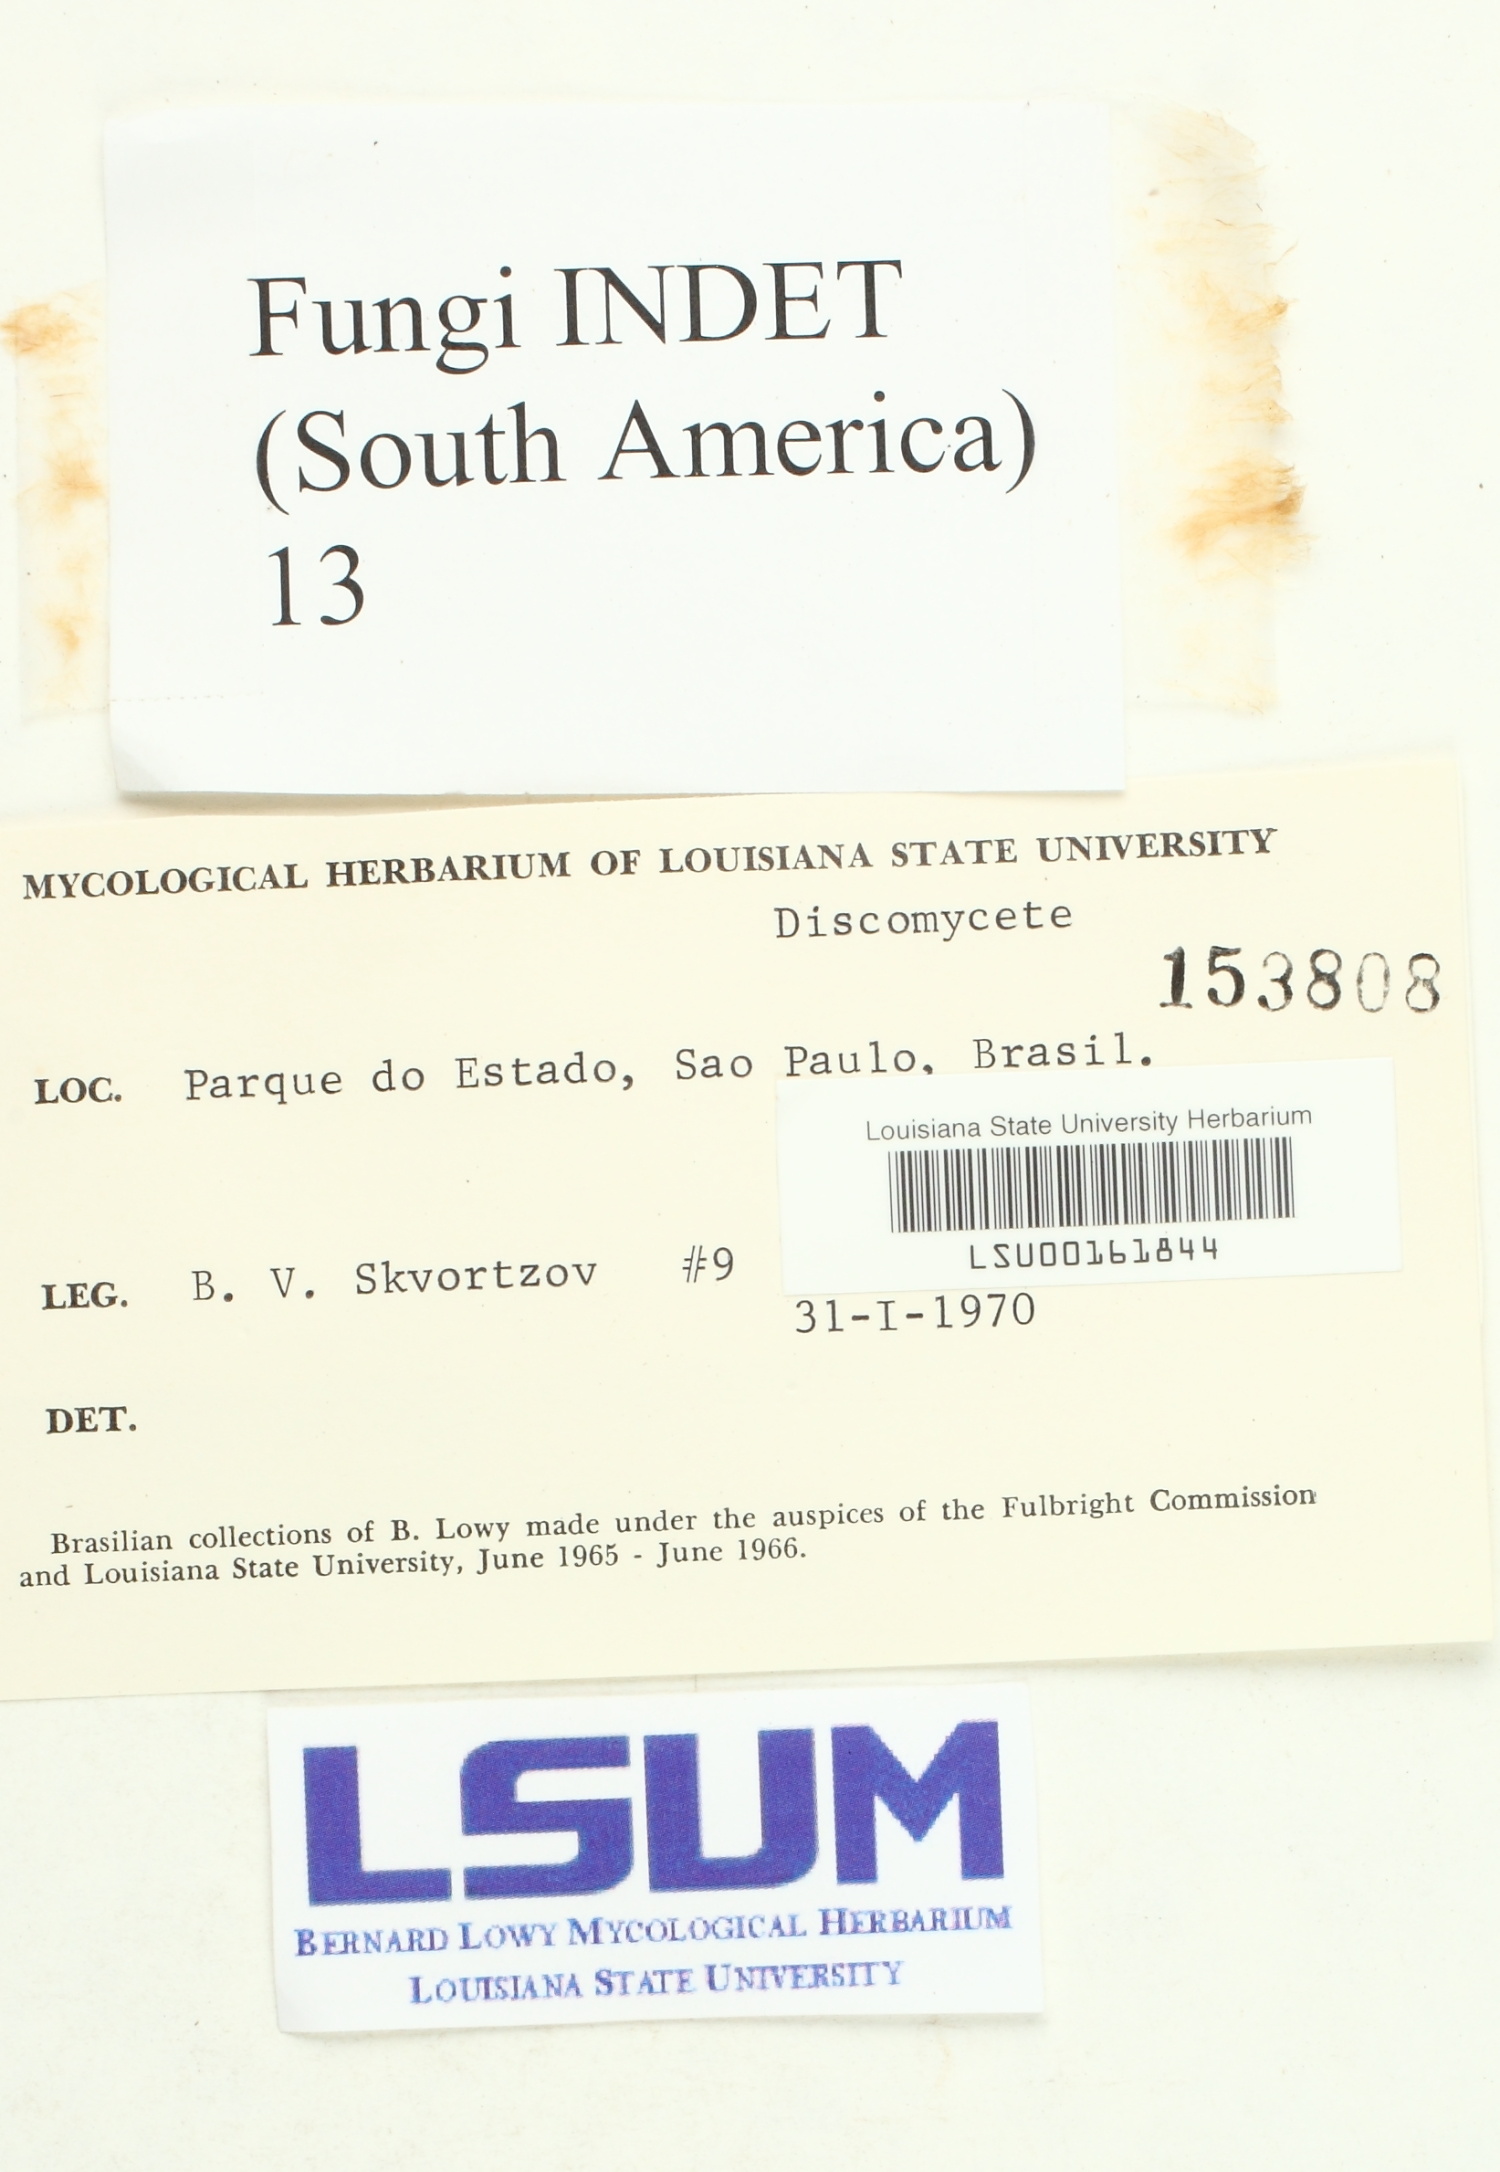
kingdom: Fungi
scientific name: Fungi
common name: Fungi
